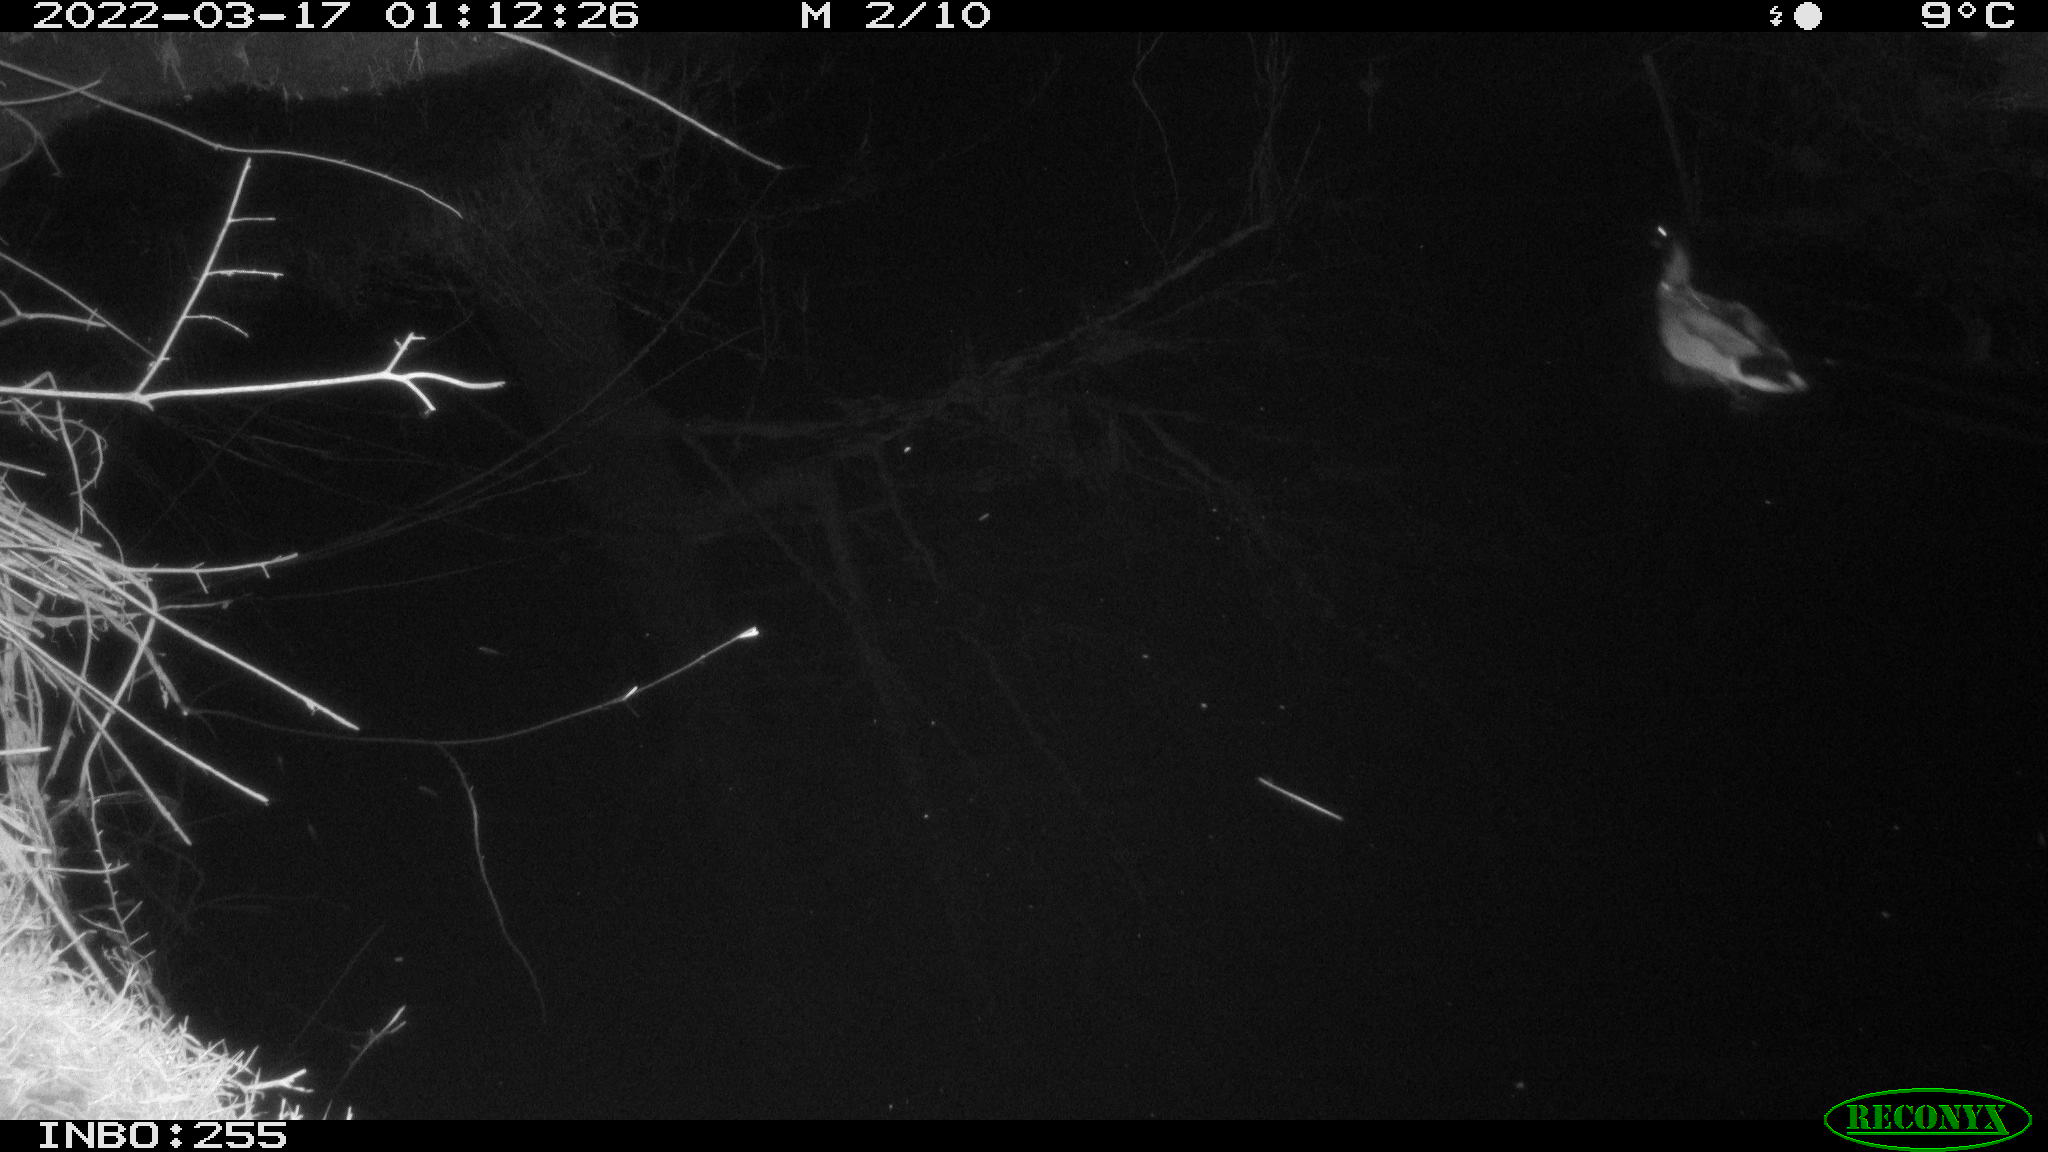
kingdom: Animalia
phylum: Chordata
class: Aves
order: Anseriformes
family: Anatidae
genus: Anas
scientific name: Anas platyrhynchos
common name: Mallard
